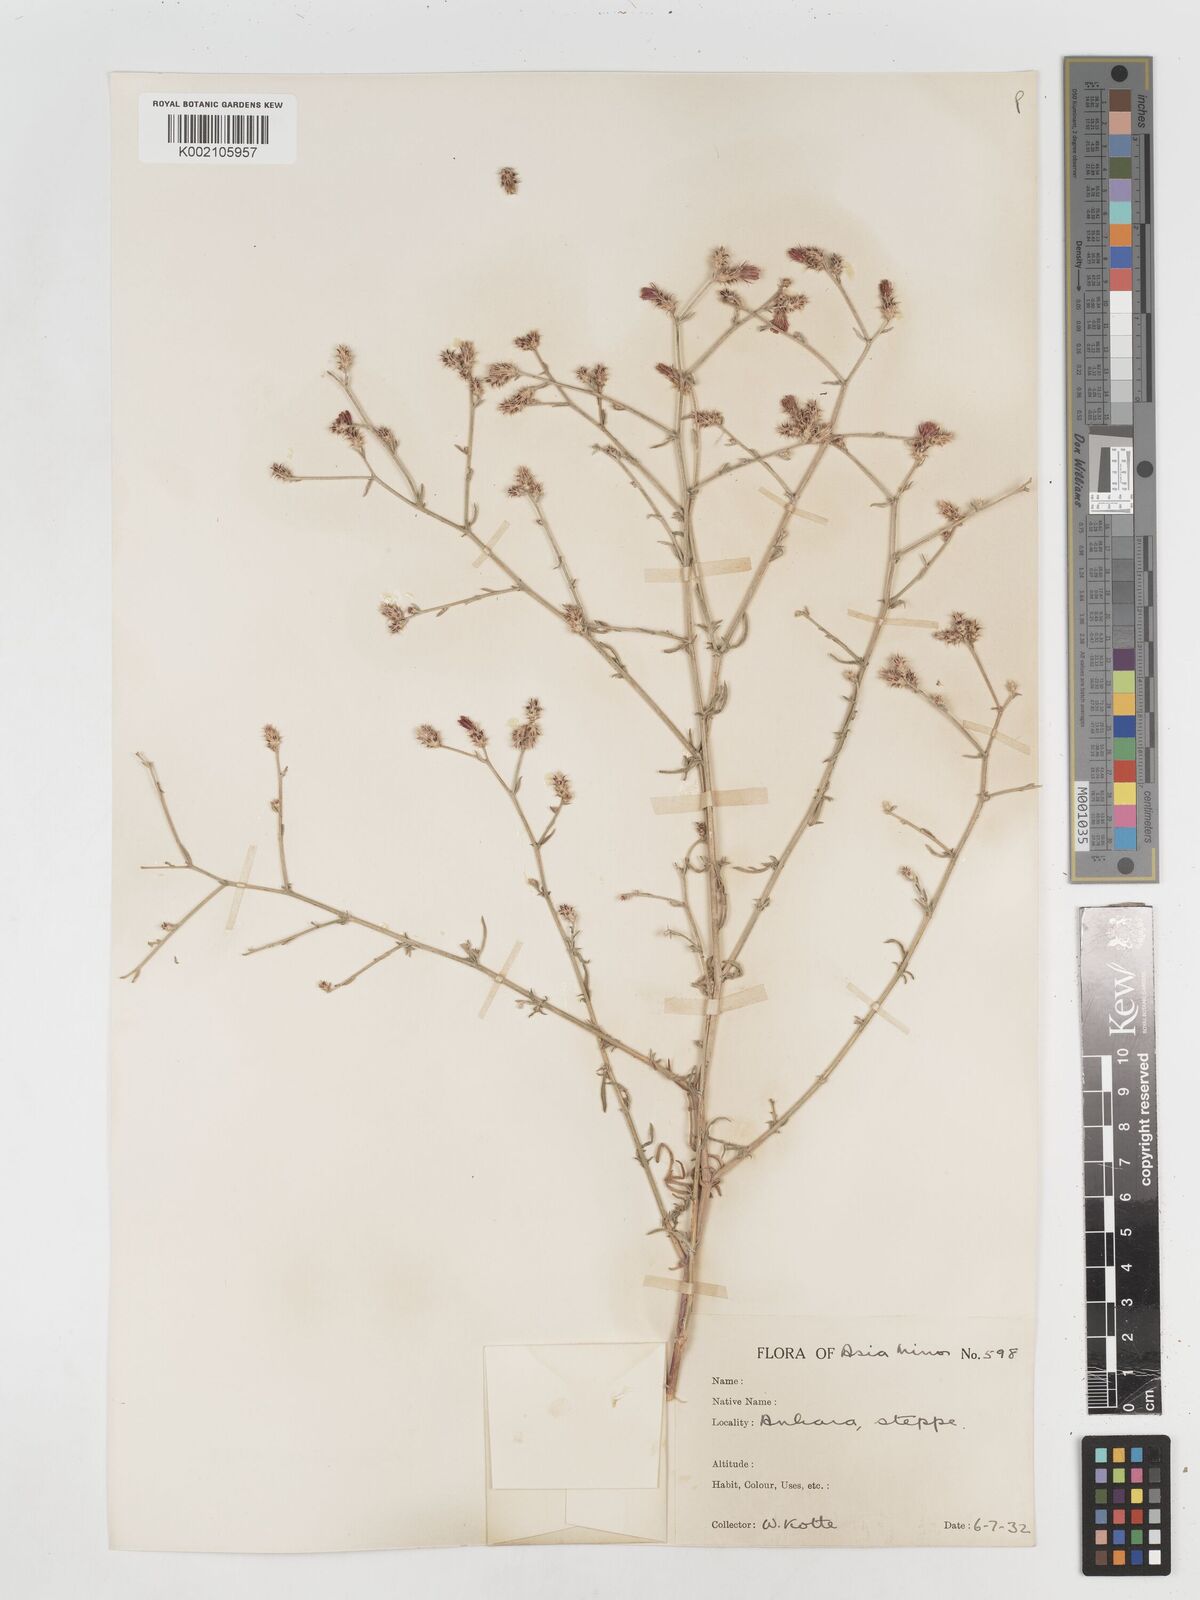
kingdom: Plantae
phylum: Tracheophyta
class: Magnoliopsida
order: Asterales
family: Asteraceae
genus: Centaurea
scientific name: Centaurea
